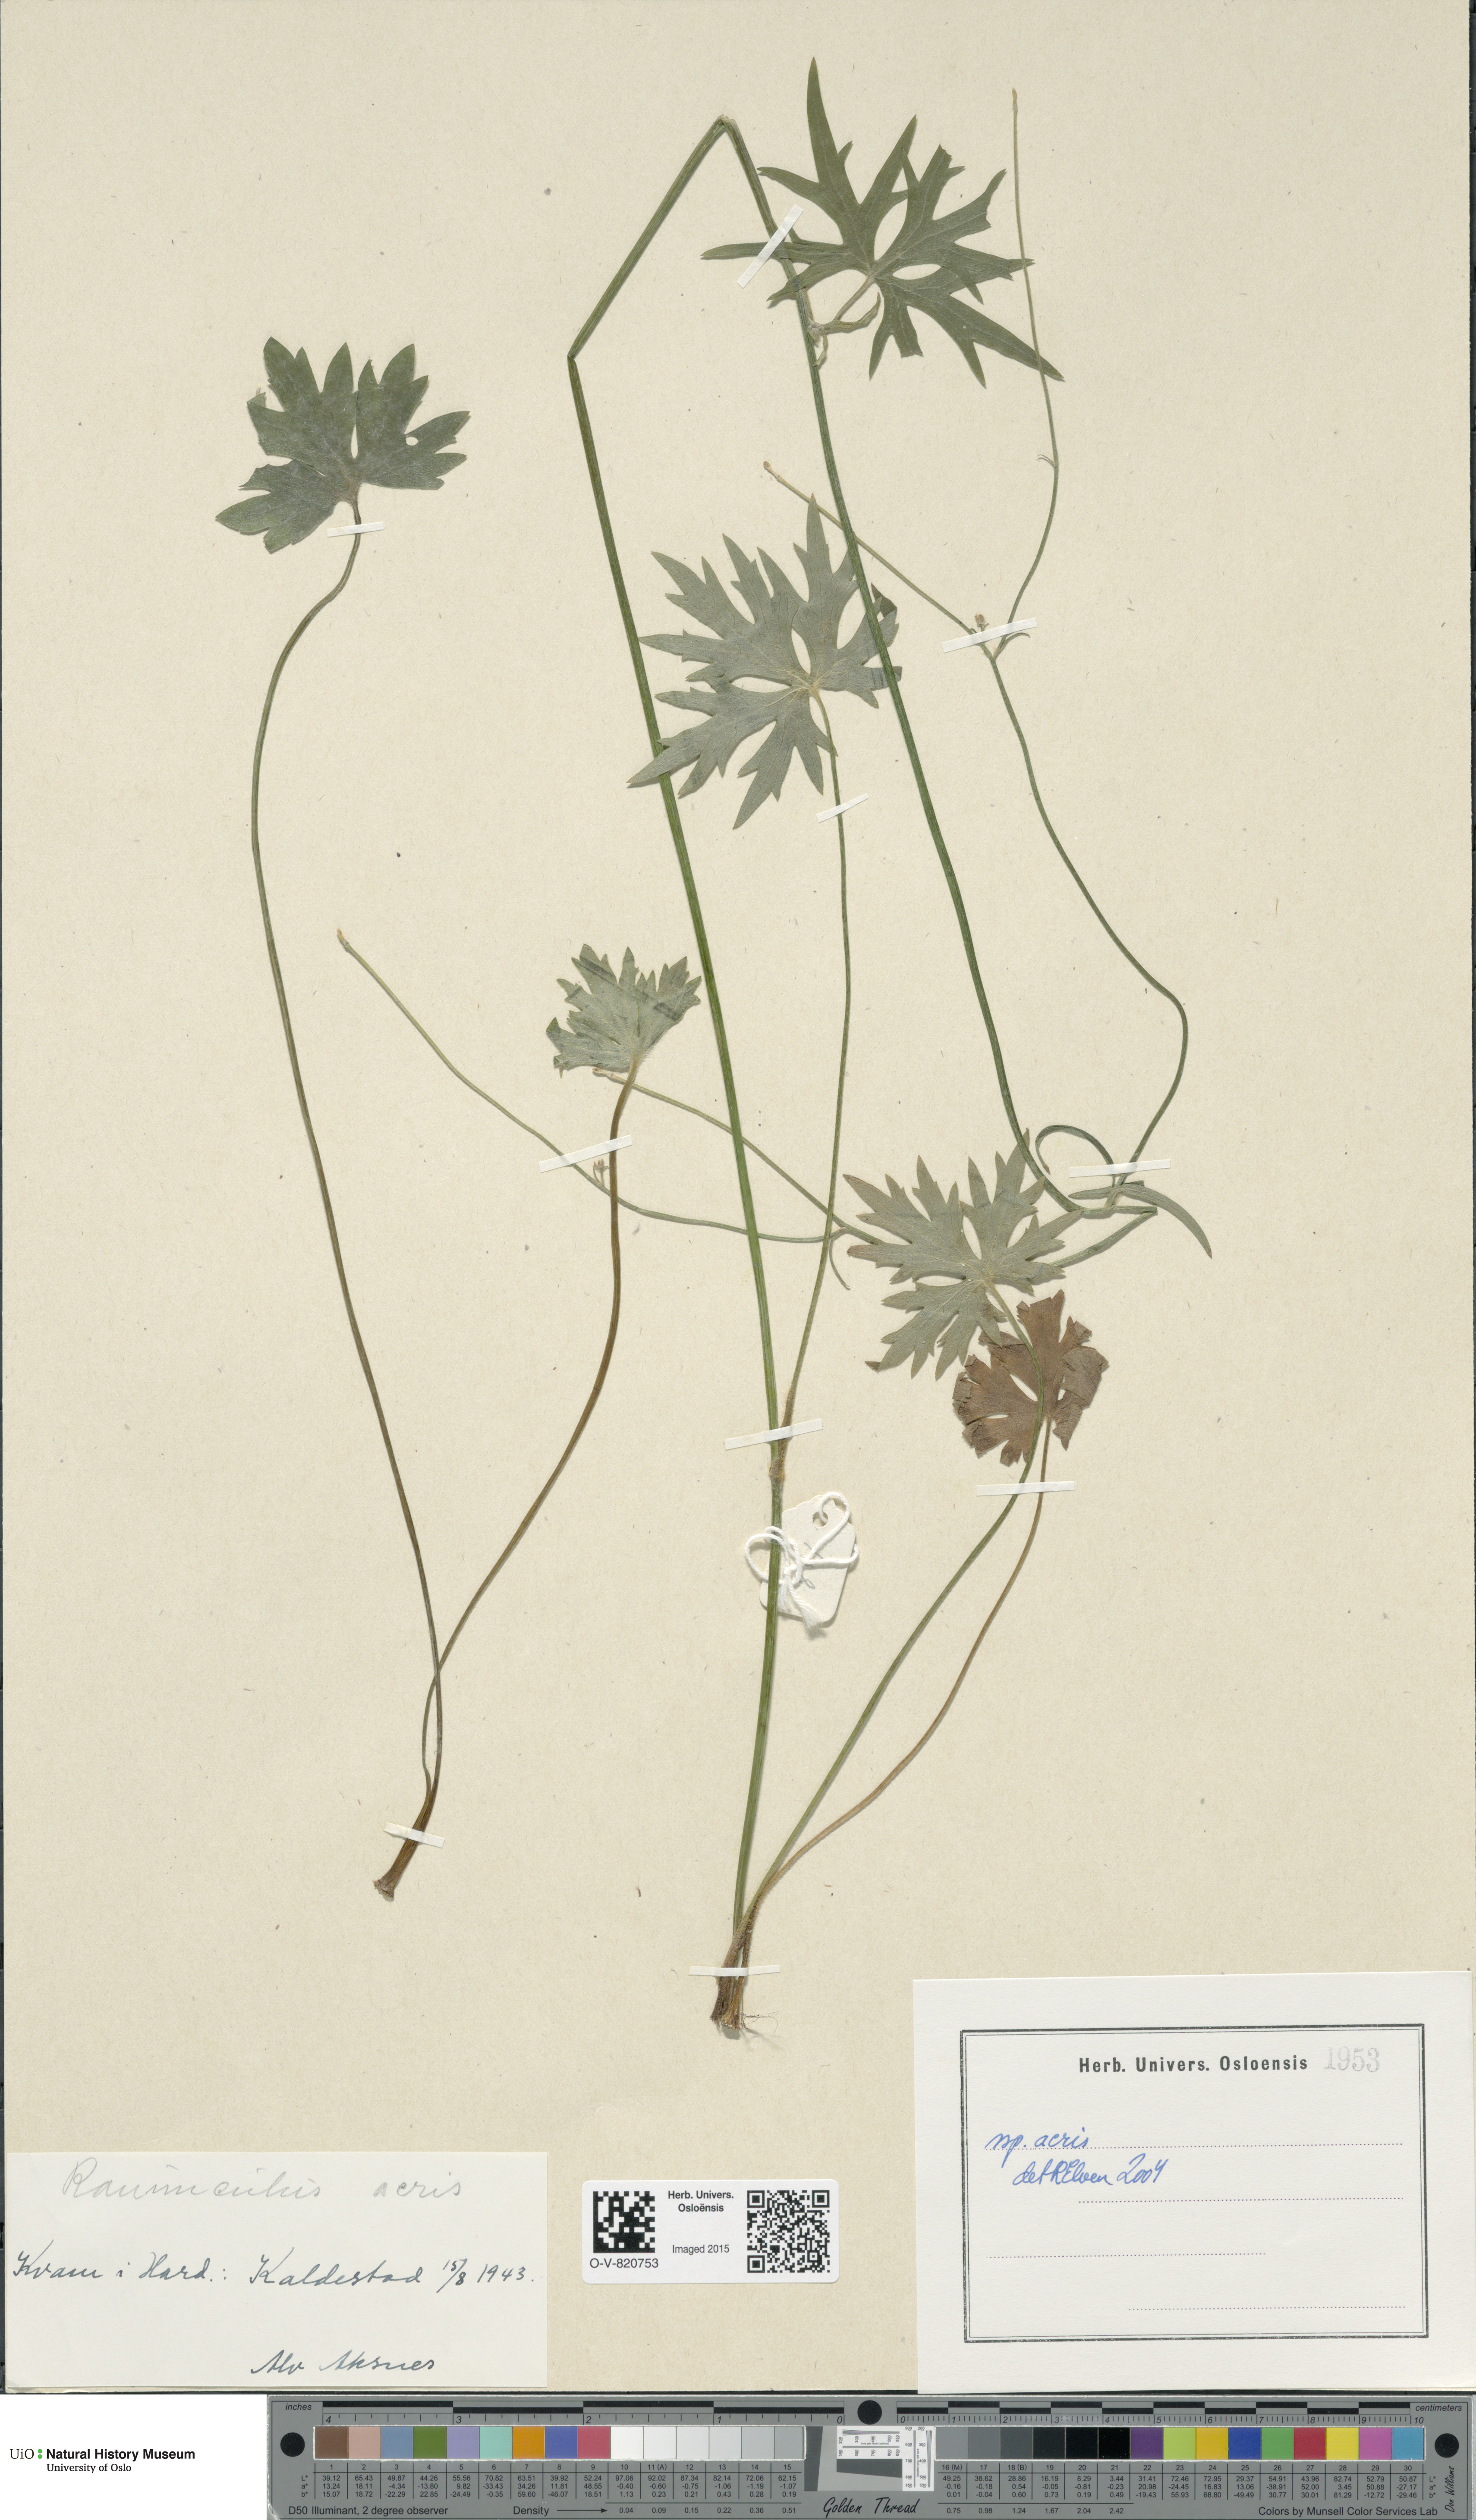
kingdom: Plantae
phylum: Tracheophyta
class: Magnoliopsida
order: Ranunculales
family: Ranunculaceae
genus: Ranunculus
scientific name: Ranunculus acris
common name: Meadow buttercup
